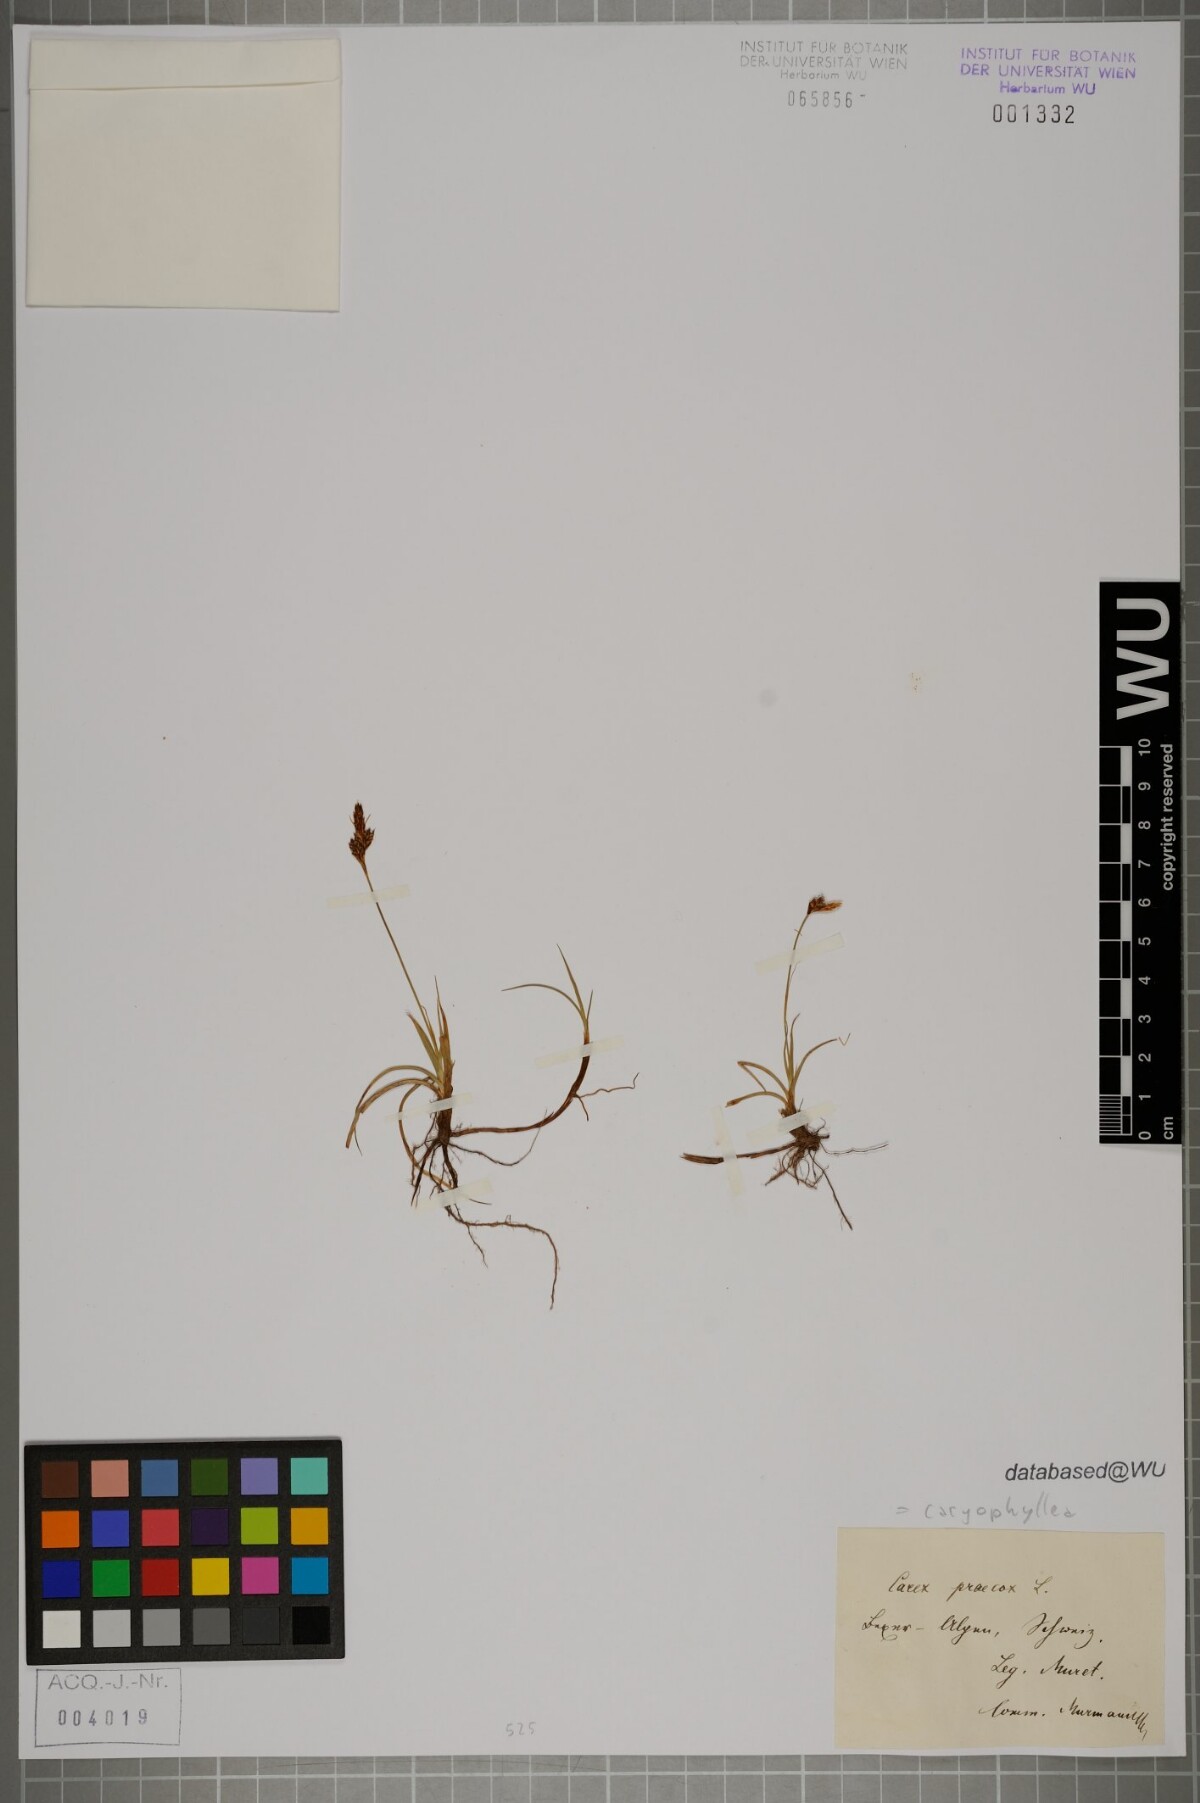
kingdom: Plantae
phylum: Tracheophyta
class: Liliopsida
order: Poales
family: Cyperaceae
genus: Carex
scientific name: Carex caryophyllea
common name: Spring sedge
